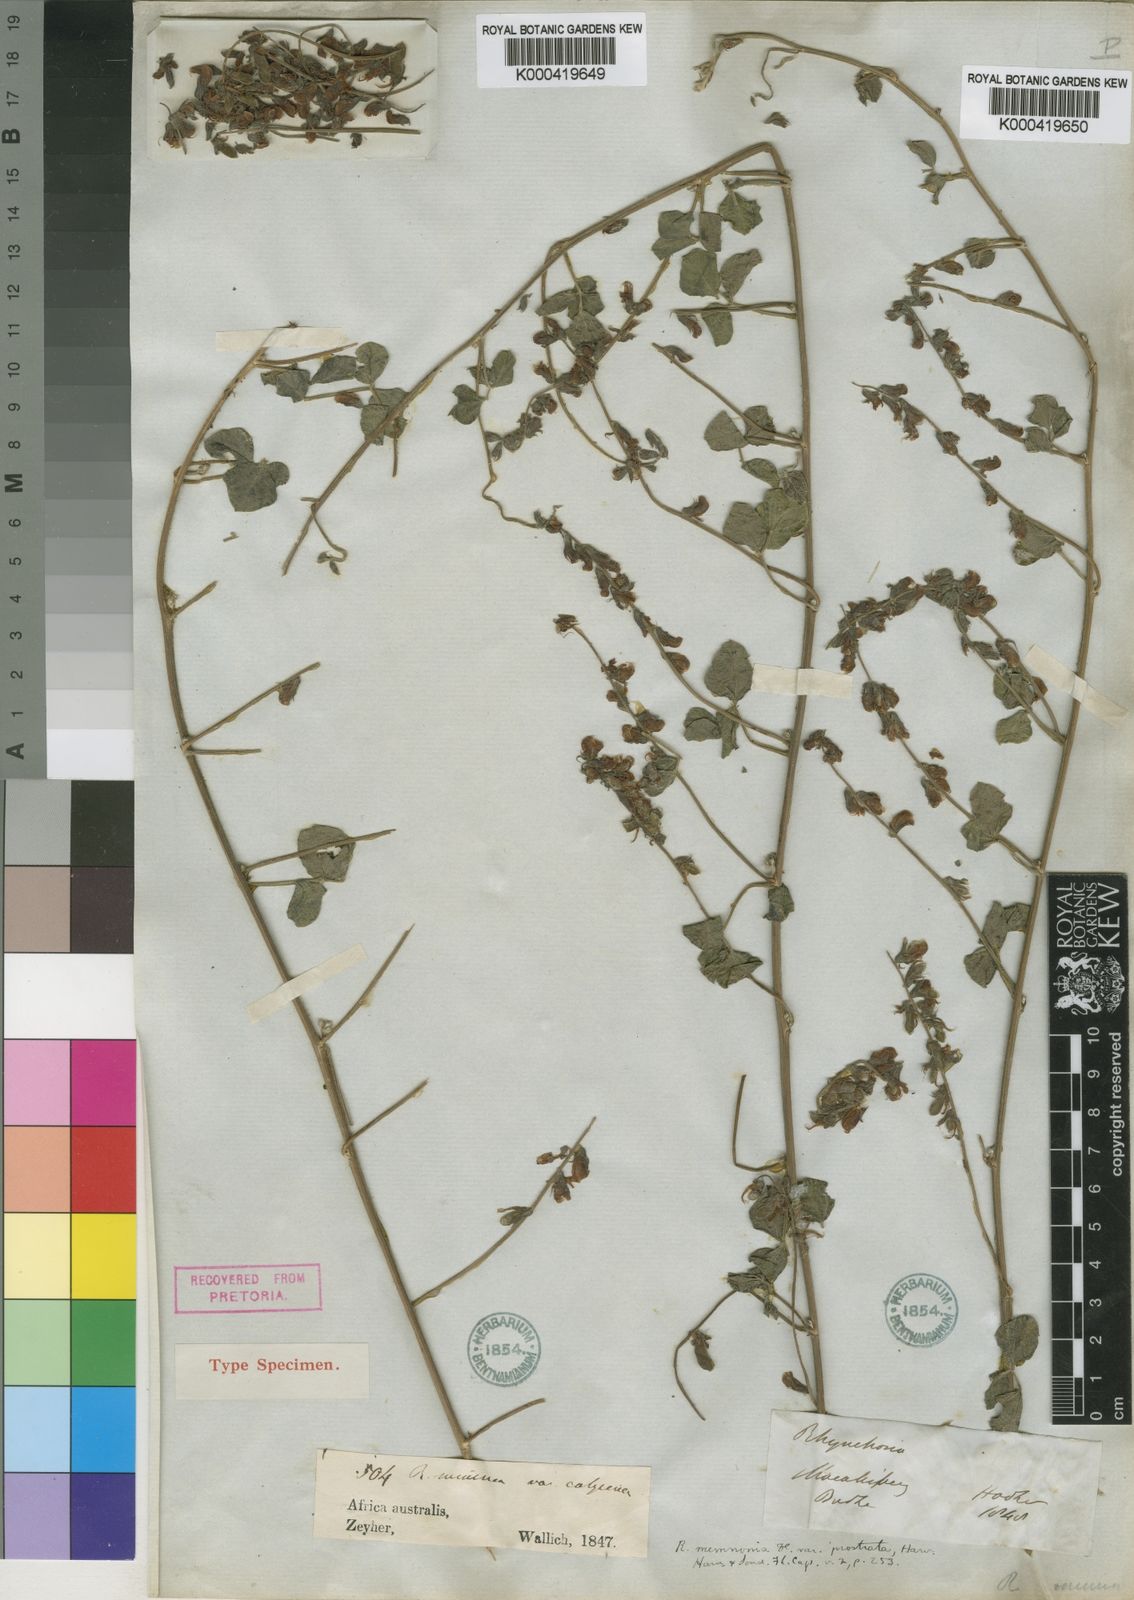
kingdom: Plantae
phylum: Tracheophyta
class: Magnoliopsida
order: Fabales
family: Fabaceae
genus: Rhynchosia
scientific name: Rhynchosia minima
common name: Least snoutbean
